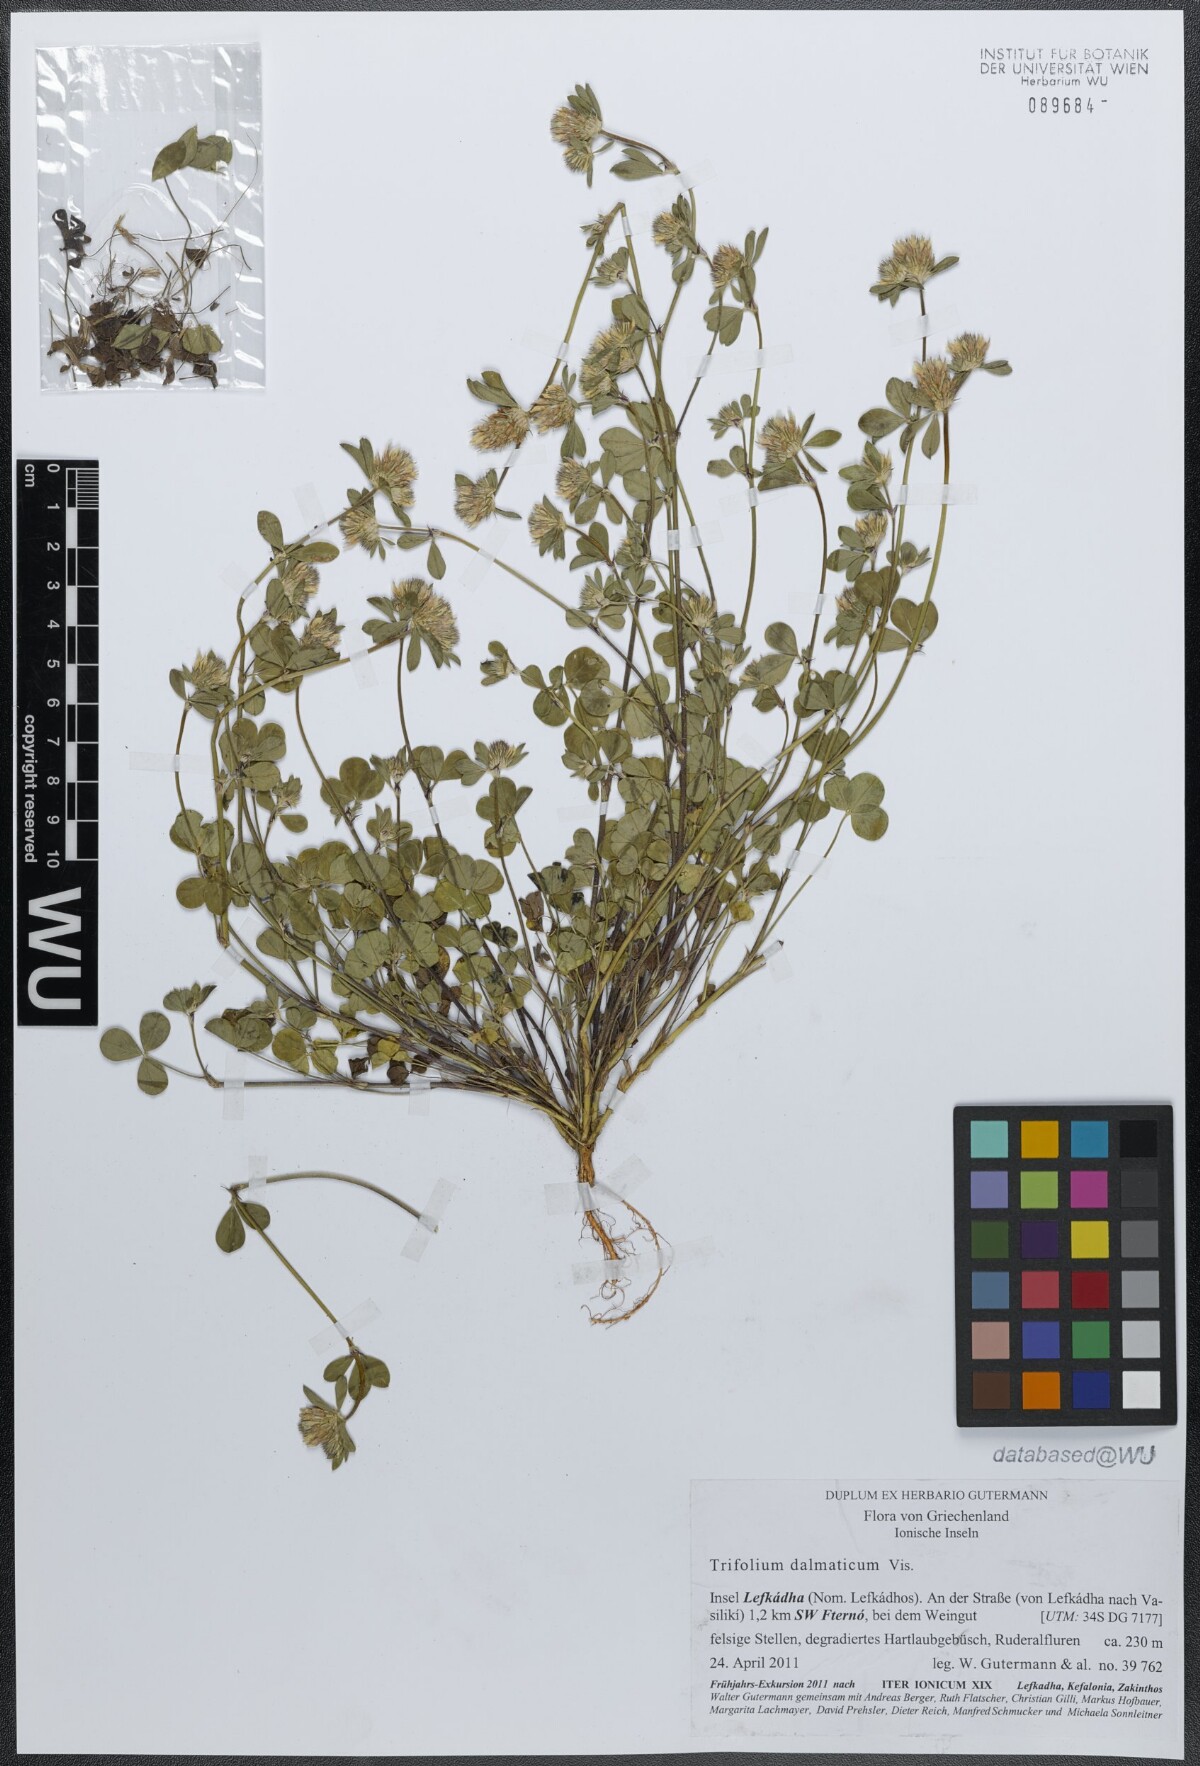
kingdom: Plantae
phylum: Tracheophyta
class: Magnoliopsida
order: Fabales
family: Fabaceae
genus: Trifolium
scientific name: Trifolium dalmaticum
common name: Dalmatian clover
